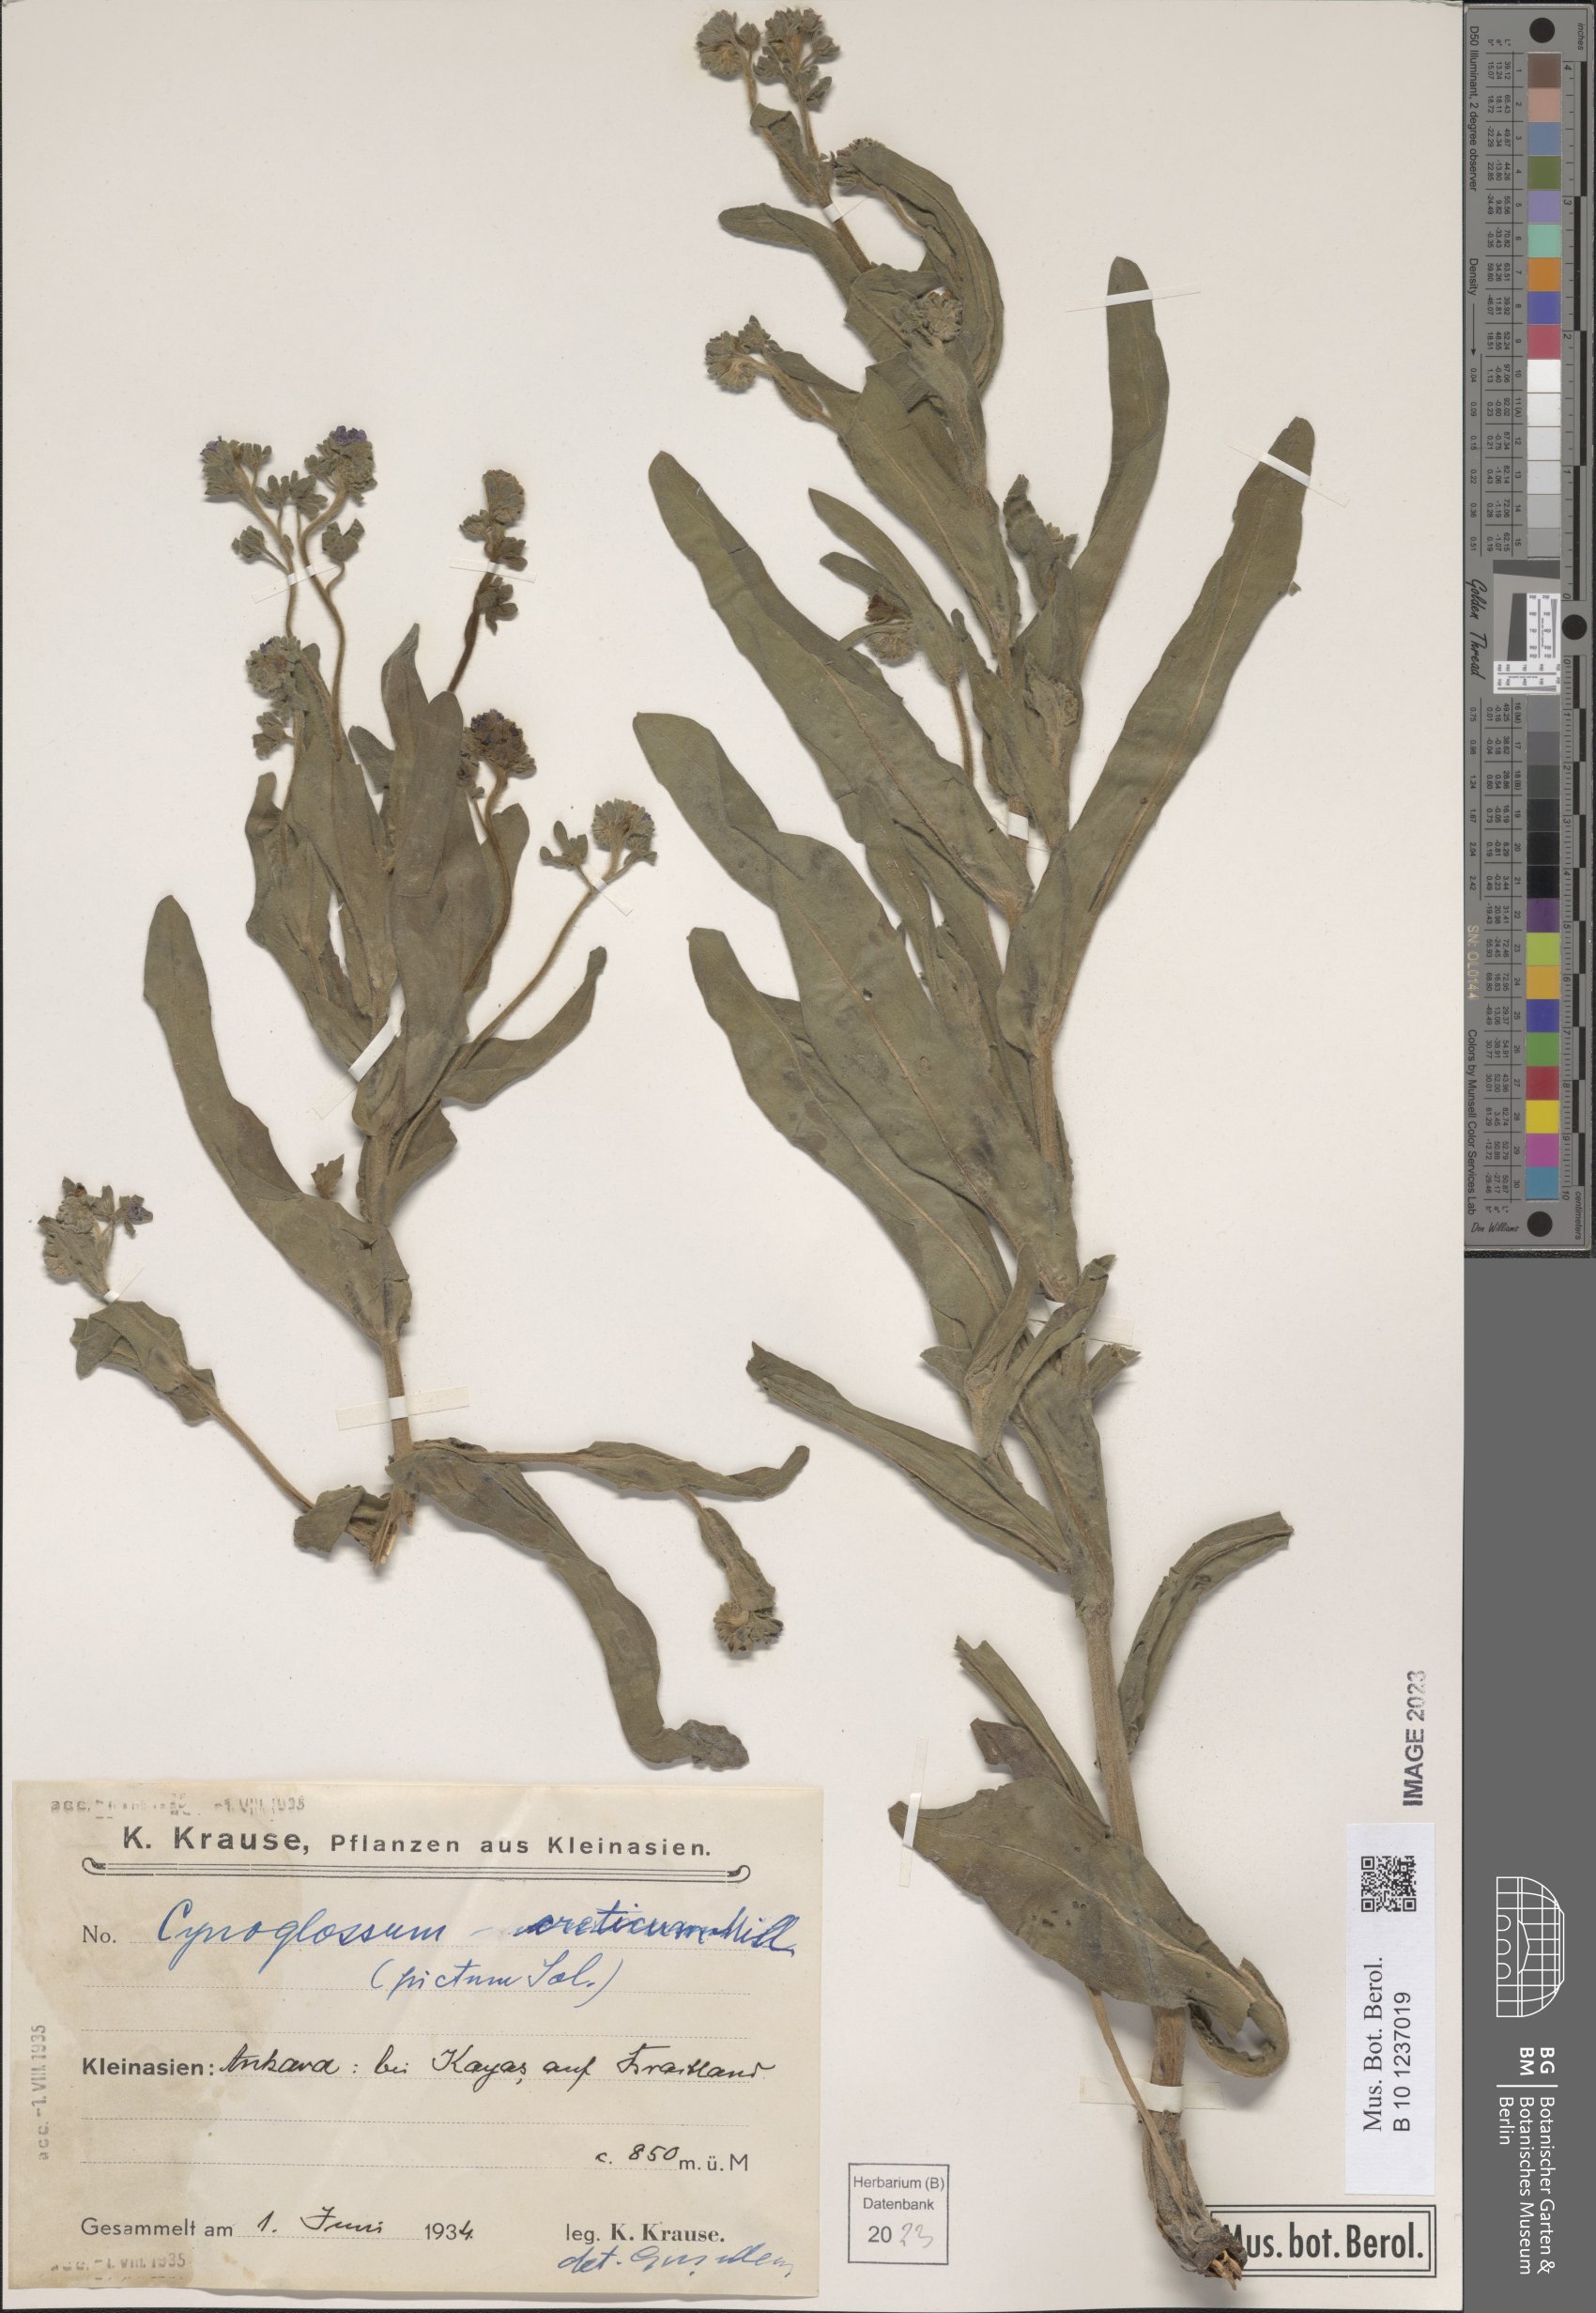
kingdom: Plantae
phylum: Tracheophyta
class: Magnoliopsida
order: Boraginales
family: Boraginaceae
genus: Cynoglossum
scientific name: Cynoglossum creticum
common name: Blue hound's tongue
